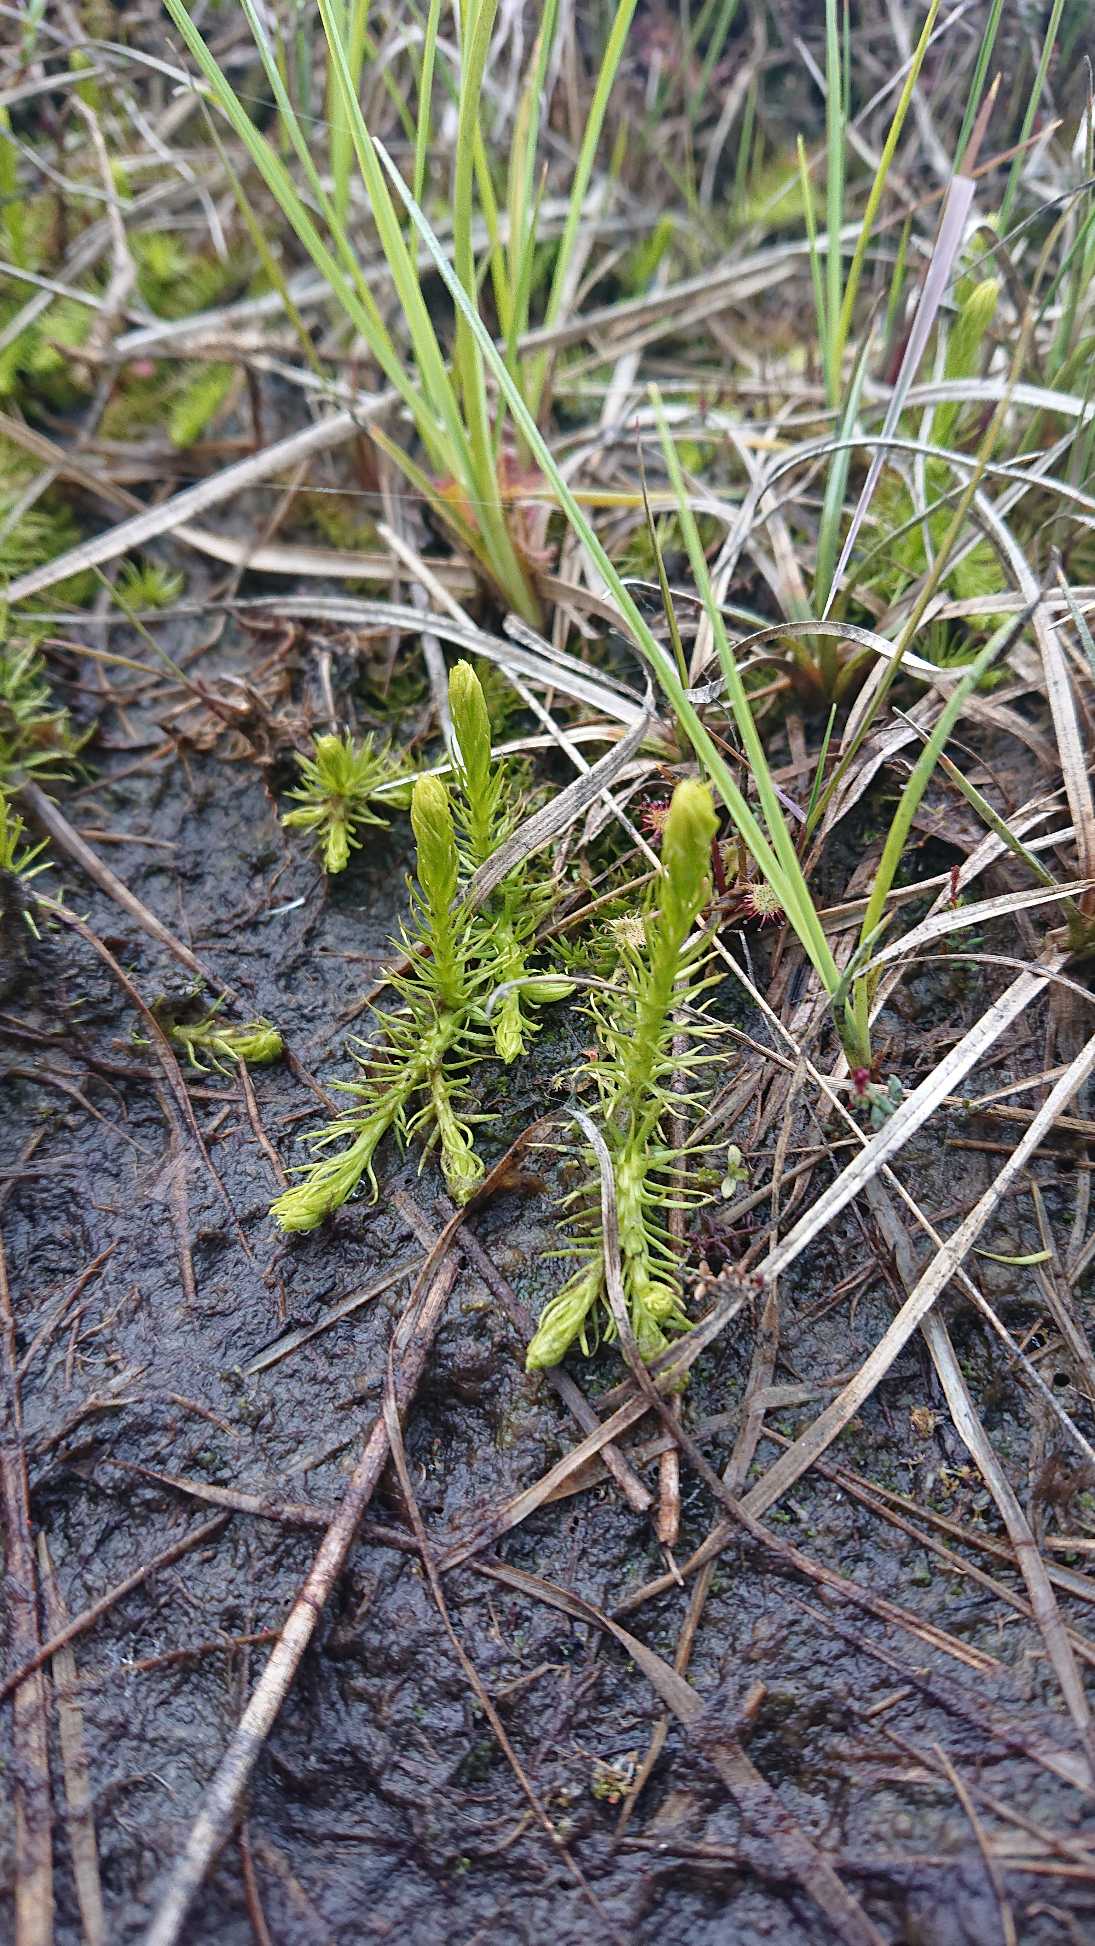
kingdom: Plantae
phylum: Tracheophyta
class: Lycopodiopsida
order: Lycopodiales
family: Lycopodiaceae
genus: Lycopodiella
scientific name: Lycopodiella inundata
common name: Liden ulvefod
